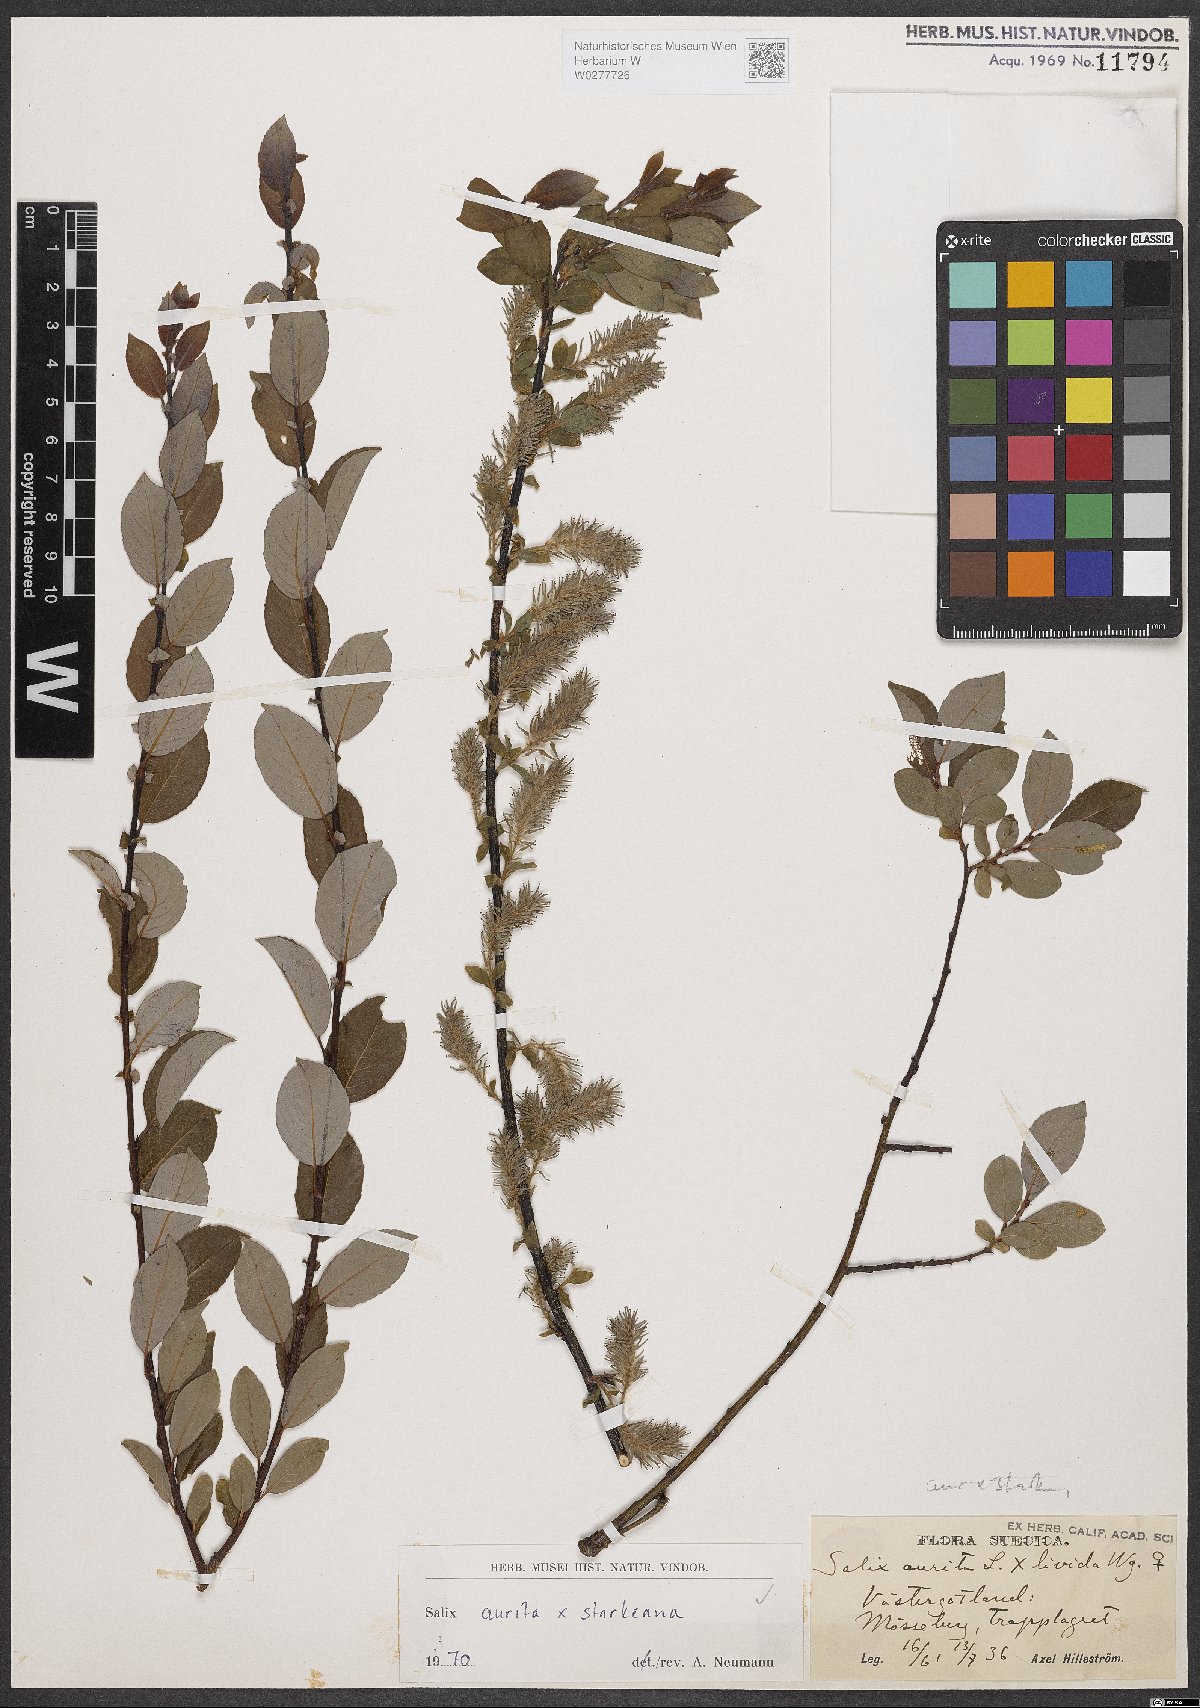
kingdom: Plantae
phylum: Tracheophyta
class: Magnoliopsida
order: Malpighiales
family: Salicaceae
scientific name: Salicaceae
